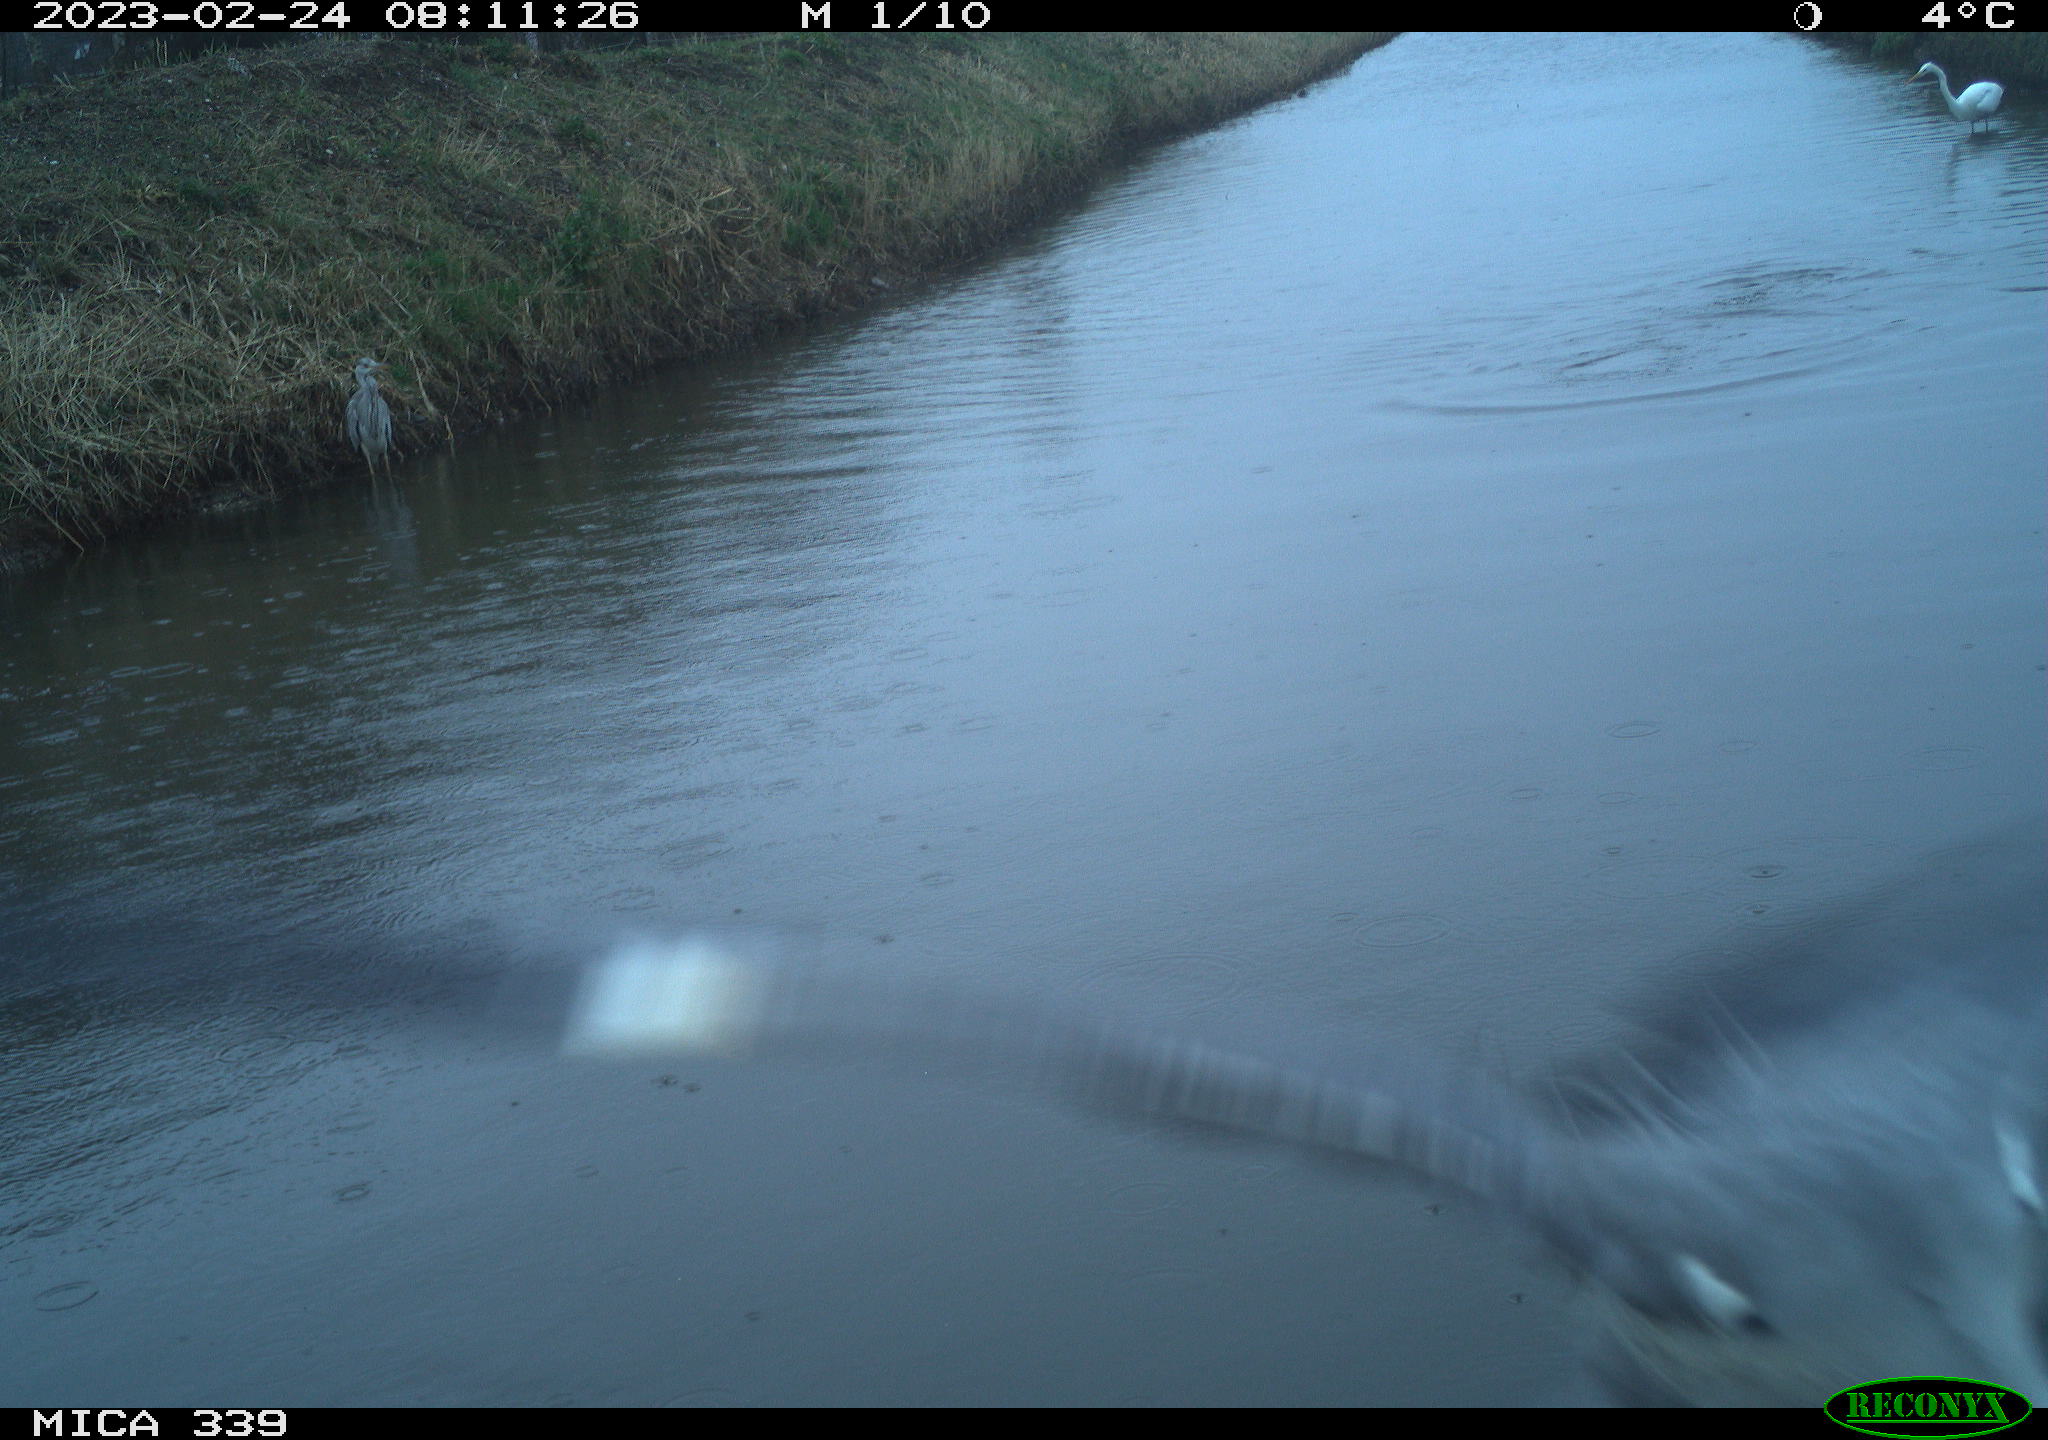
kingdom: Animalia
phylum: Chordata
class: Aves
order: Pelecaniformes
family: Ardeidae
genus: Ardea
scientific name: Ardea cinerea
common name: Grey heron
